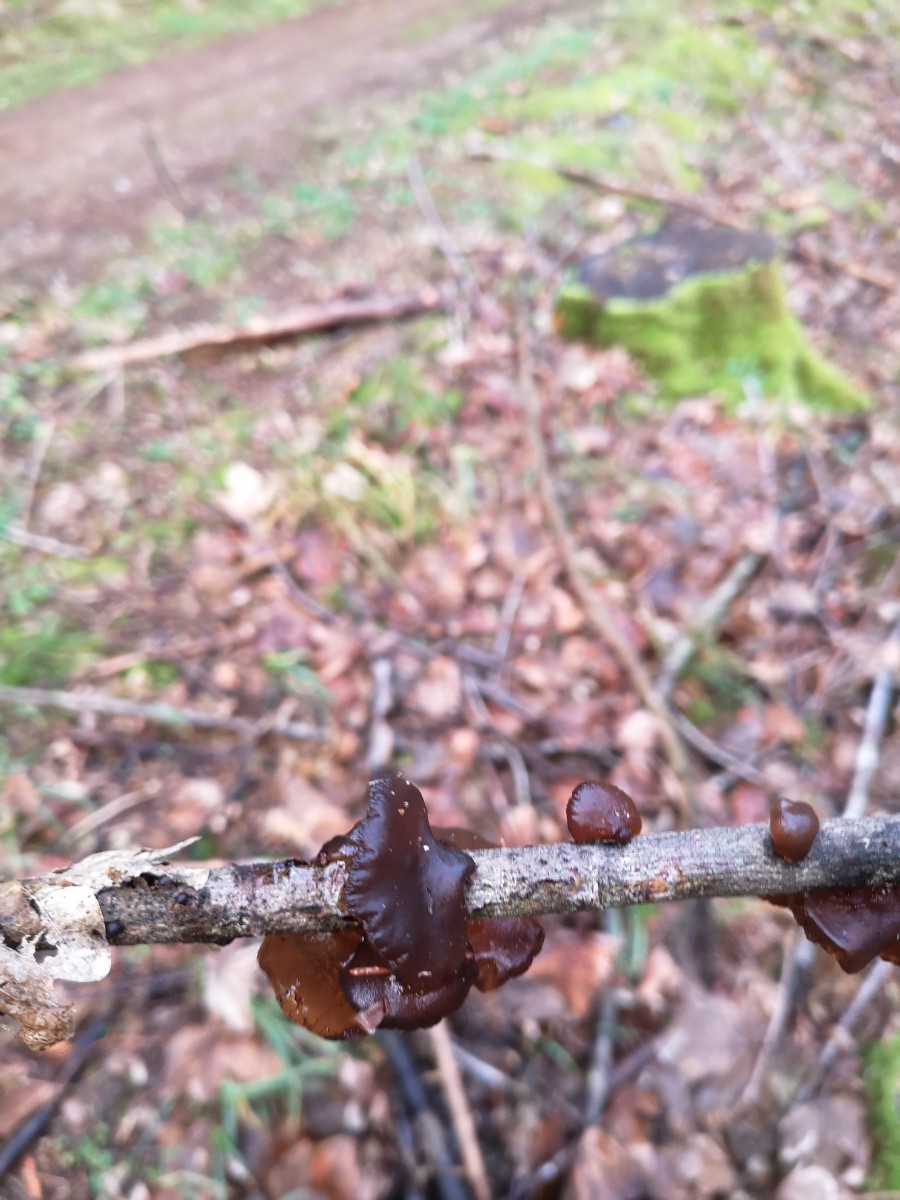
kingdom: Fungi
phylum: Basidiomycota
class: Agaricomycetes
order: Auriculariales
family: Auriculariaceae
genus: Exidia
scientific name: Exidia recisa
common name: pile-bævretop
